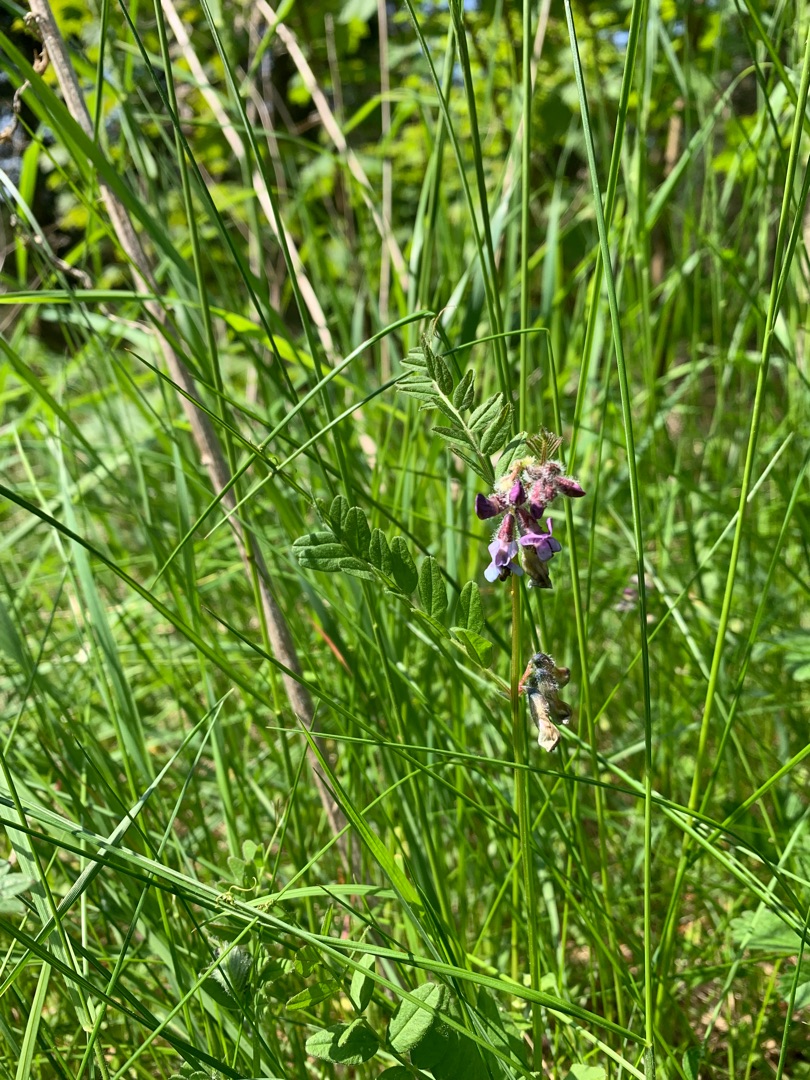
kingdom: Plantae
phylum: Tracheophyta
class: Magnoliopsida
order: Fabales
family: Fabaceae
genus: Vicia
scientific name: Vicia sepium
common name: Gærde-vikke
